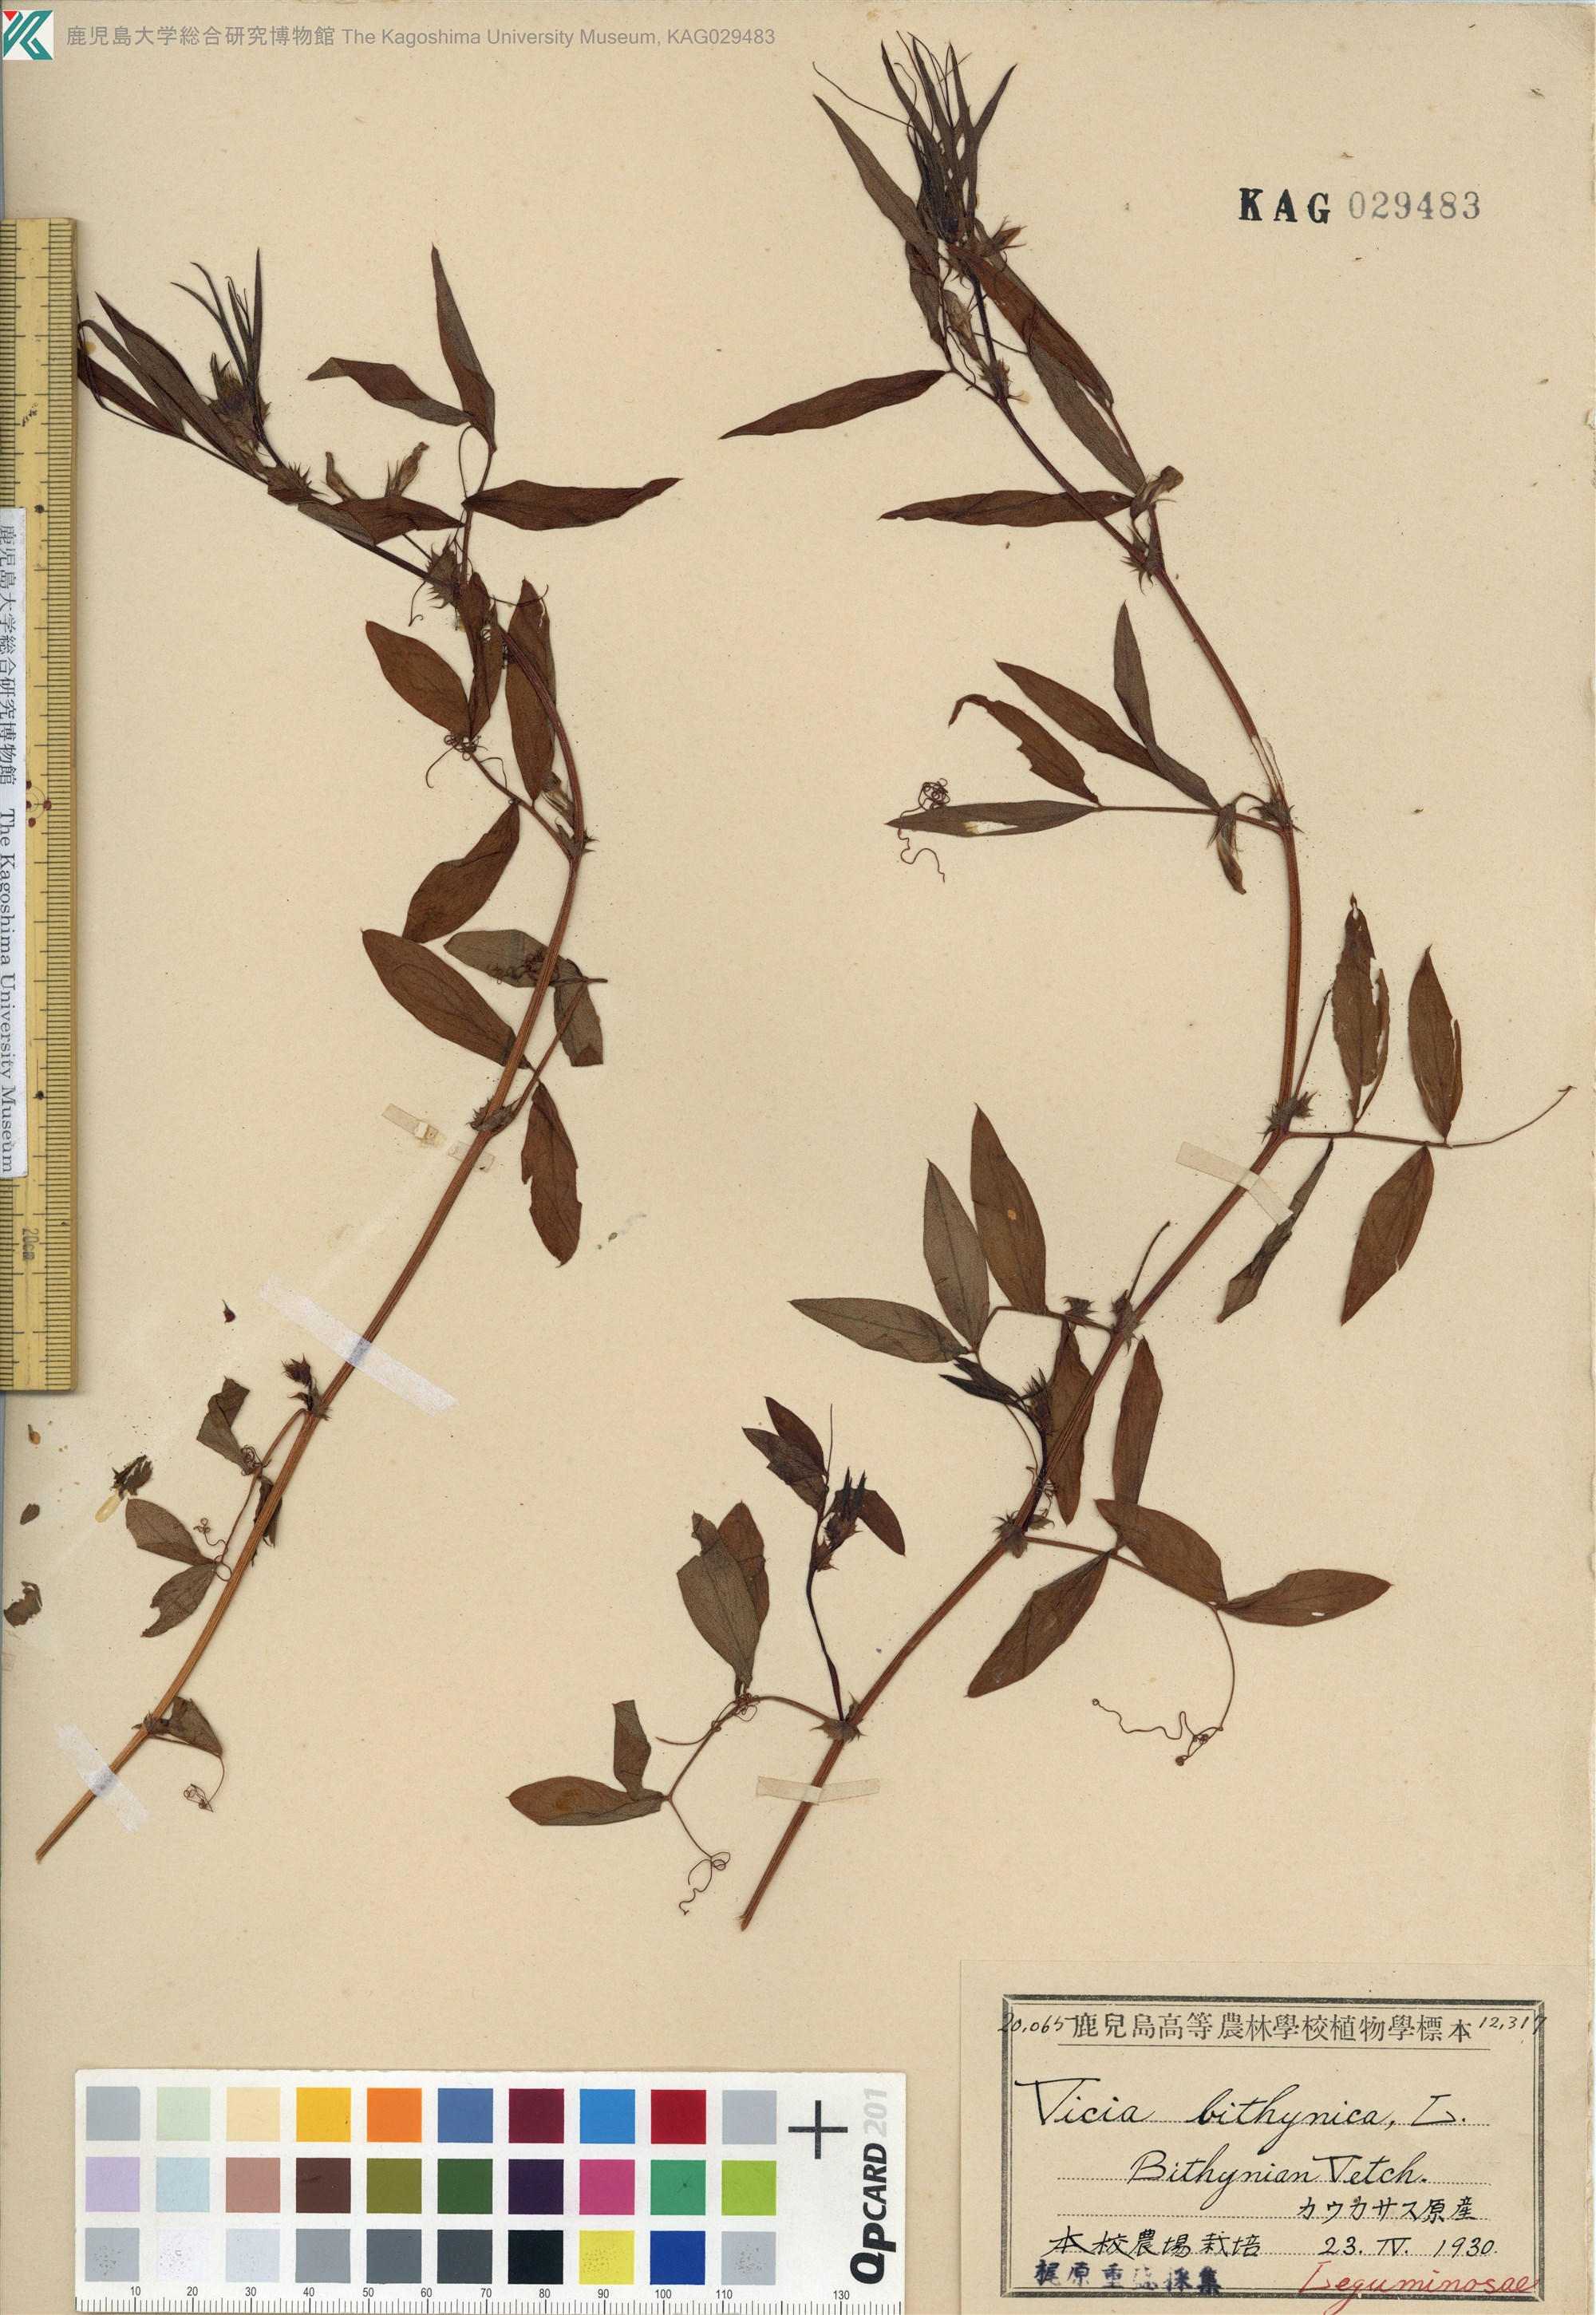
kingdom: Plantae
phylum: Tracheophyta
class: Magnoliopsida
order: Fabales
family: Fabaceae
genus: Vicia
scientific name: Vicia bithynica
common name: Bithynian vetch
